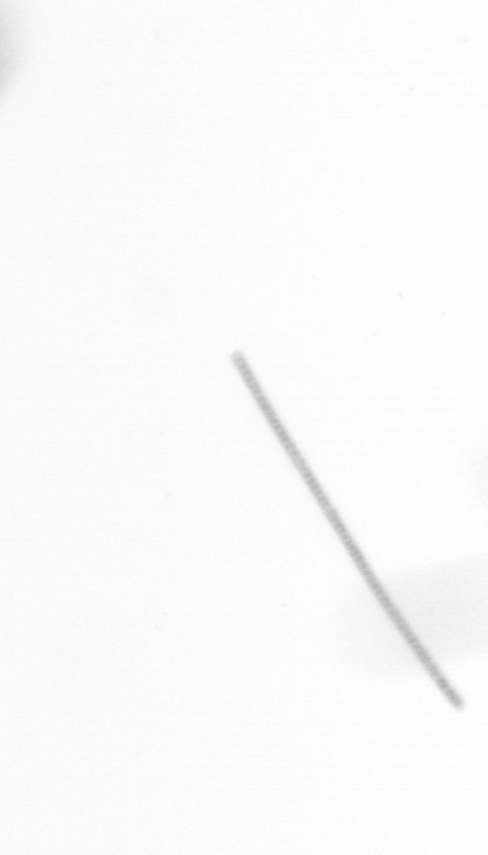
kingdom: Chromista
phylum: Ochrophyta
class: Bacillariophyceae
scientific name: Bacillariophyceae
